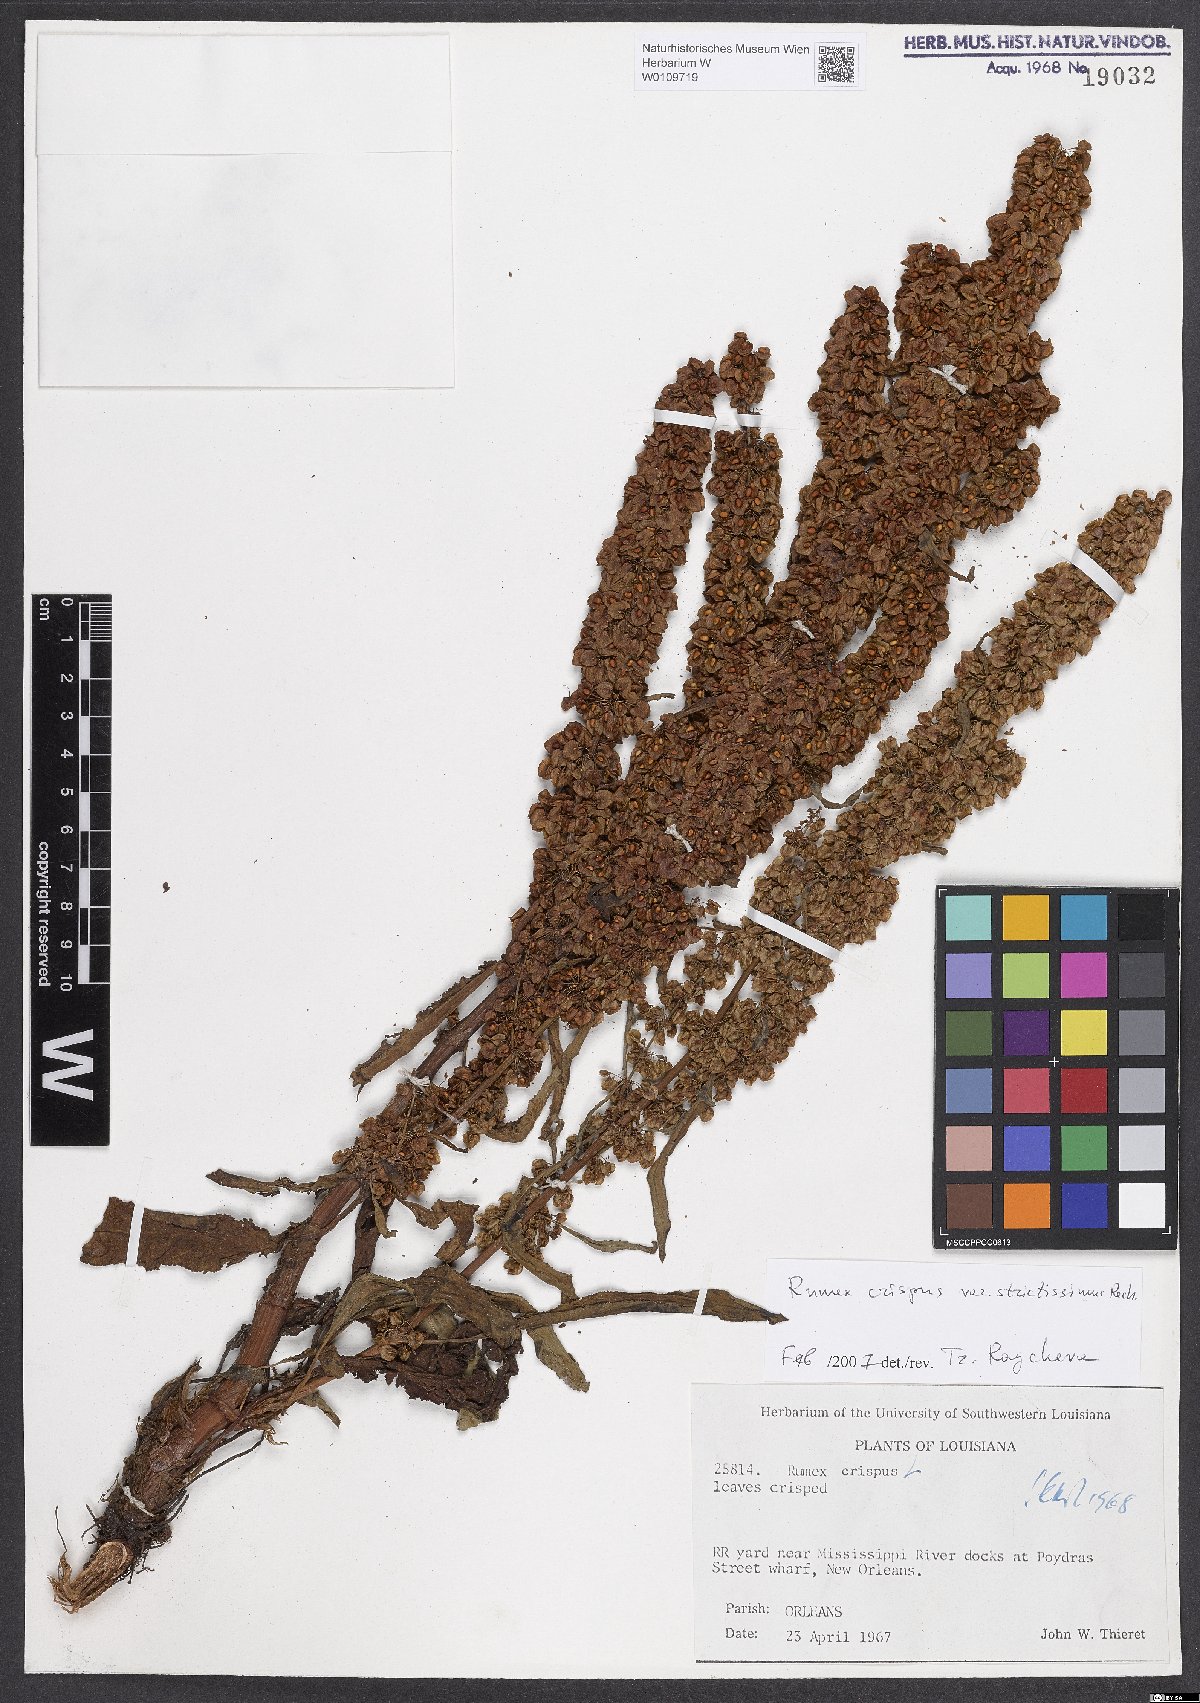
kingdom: Plantae
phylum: Tracheophyta
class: Magnoliopsida
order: Caryophyllales
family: Polygonaceae
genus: Rumex
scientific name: Rumex crispus
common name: Curled dock
